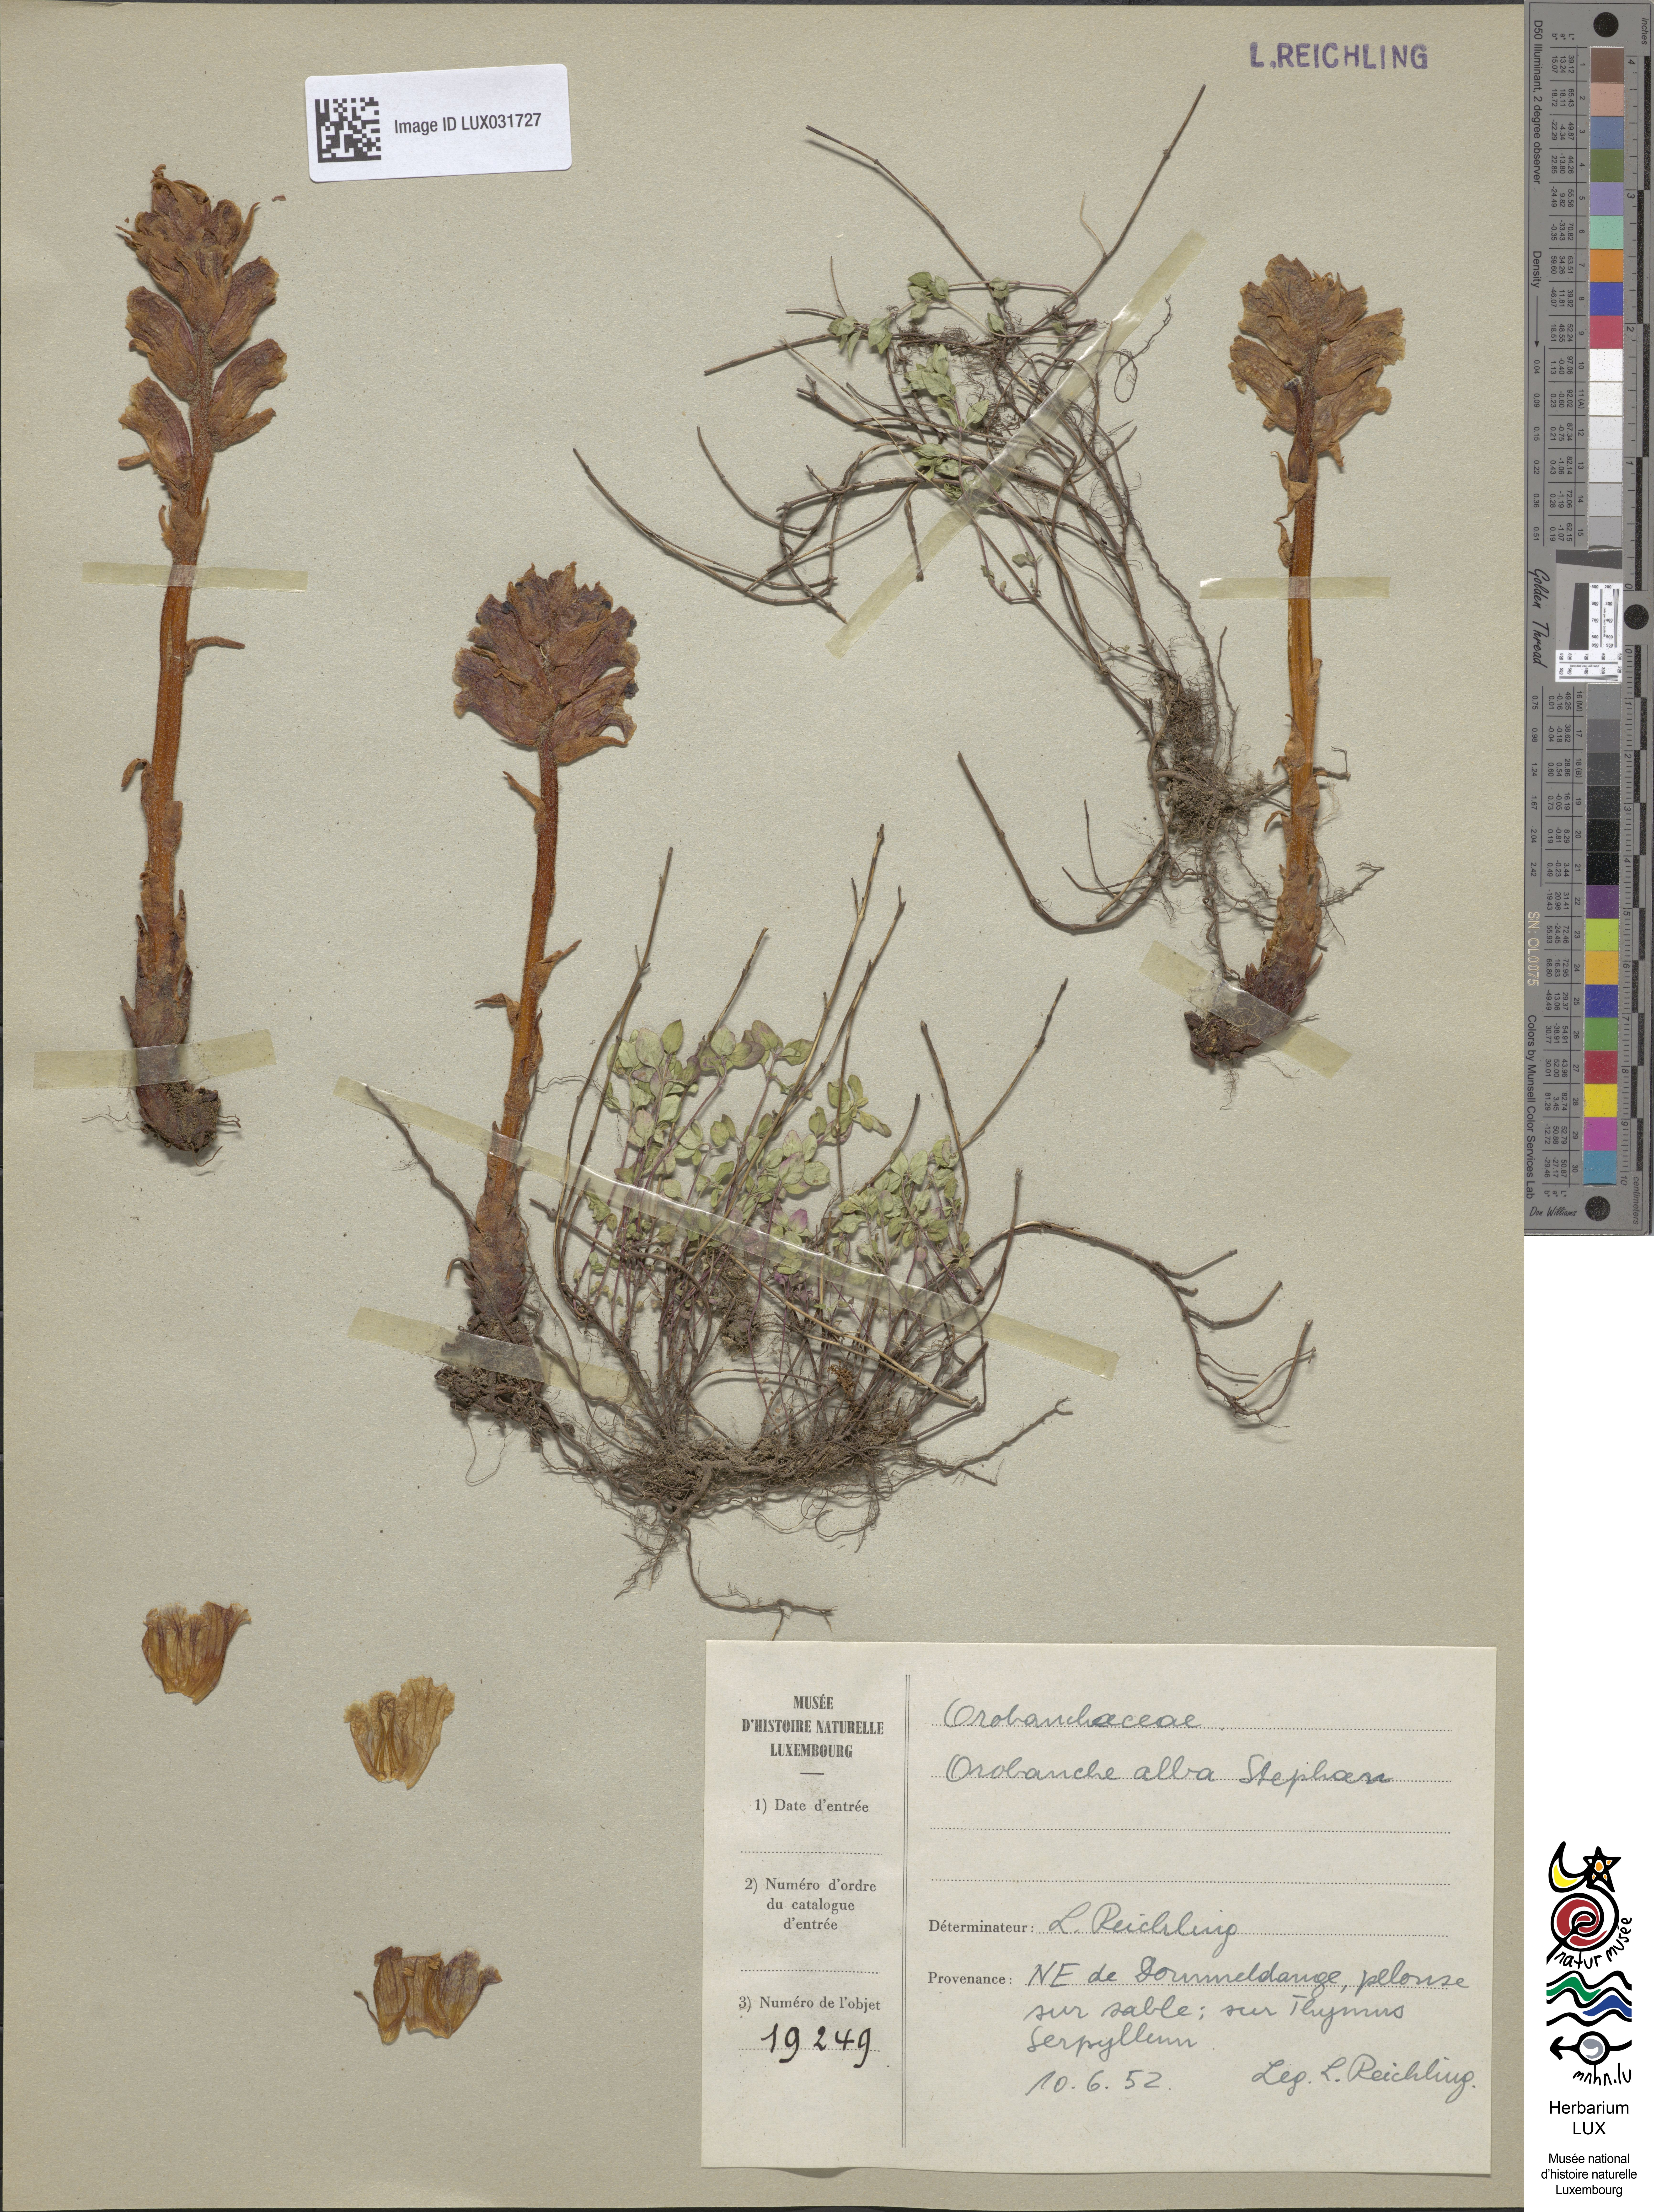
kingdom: Plantae
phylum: Tracheophyta
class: Magnoliopsida
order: Lamiales
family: Orobanchaceae
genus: Orobanche
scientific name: Orobanche alba
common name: Thyme broomrape
